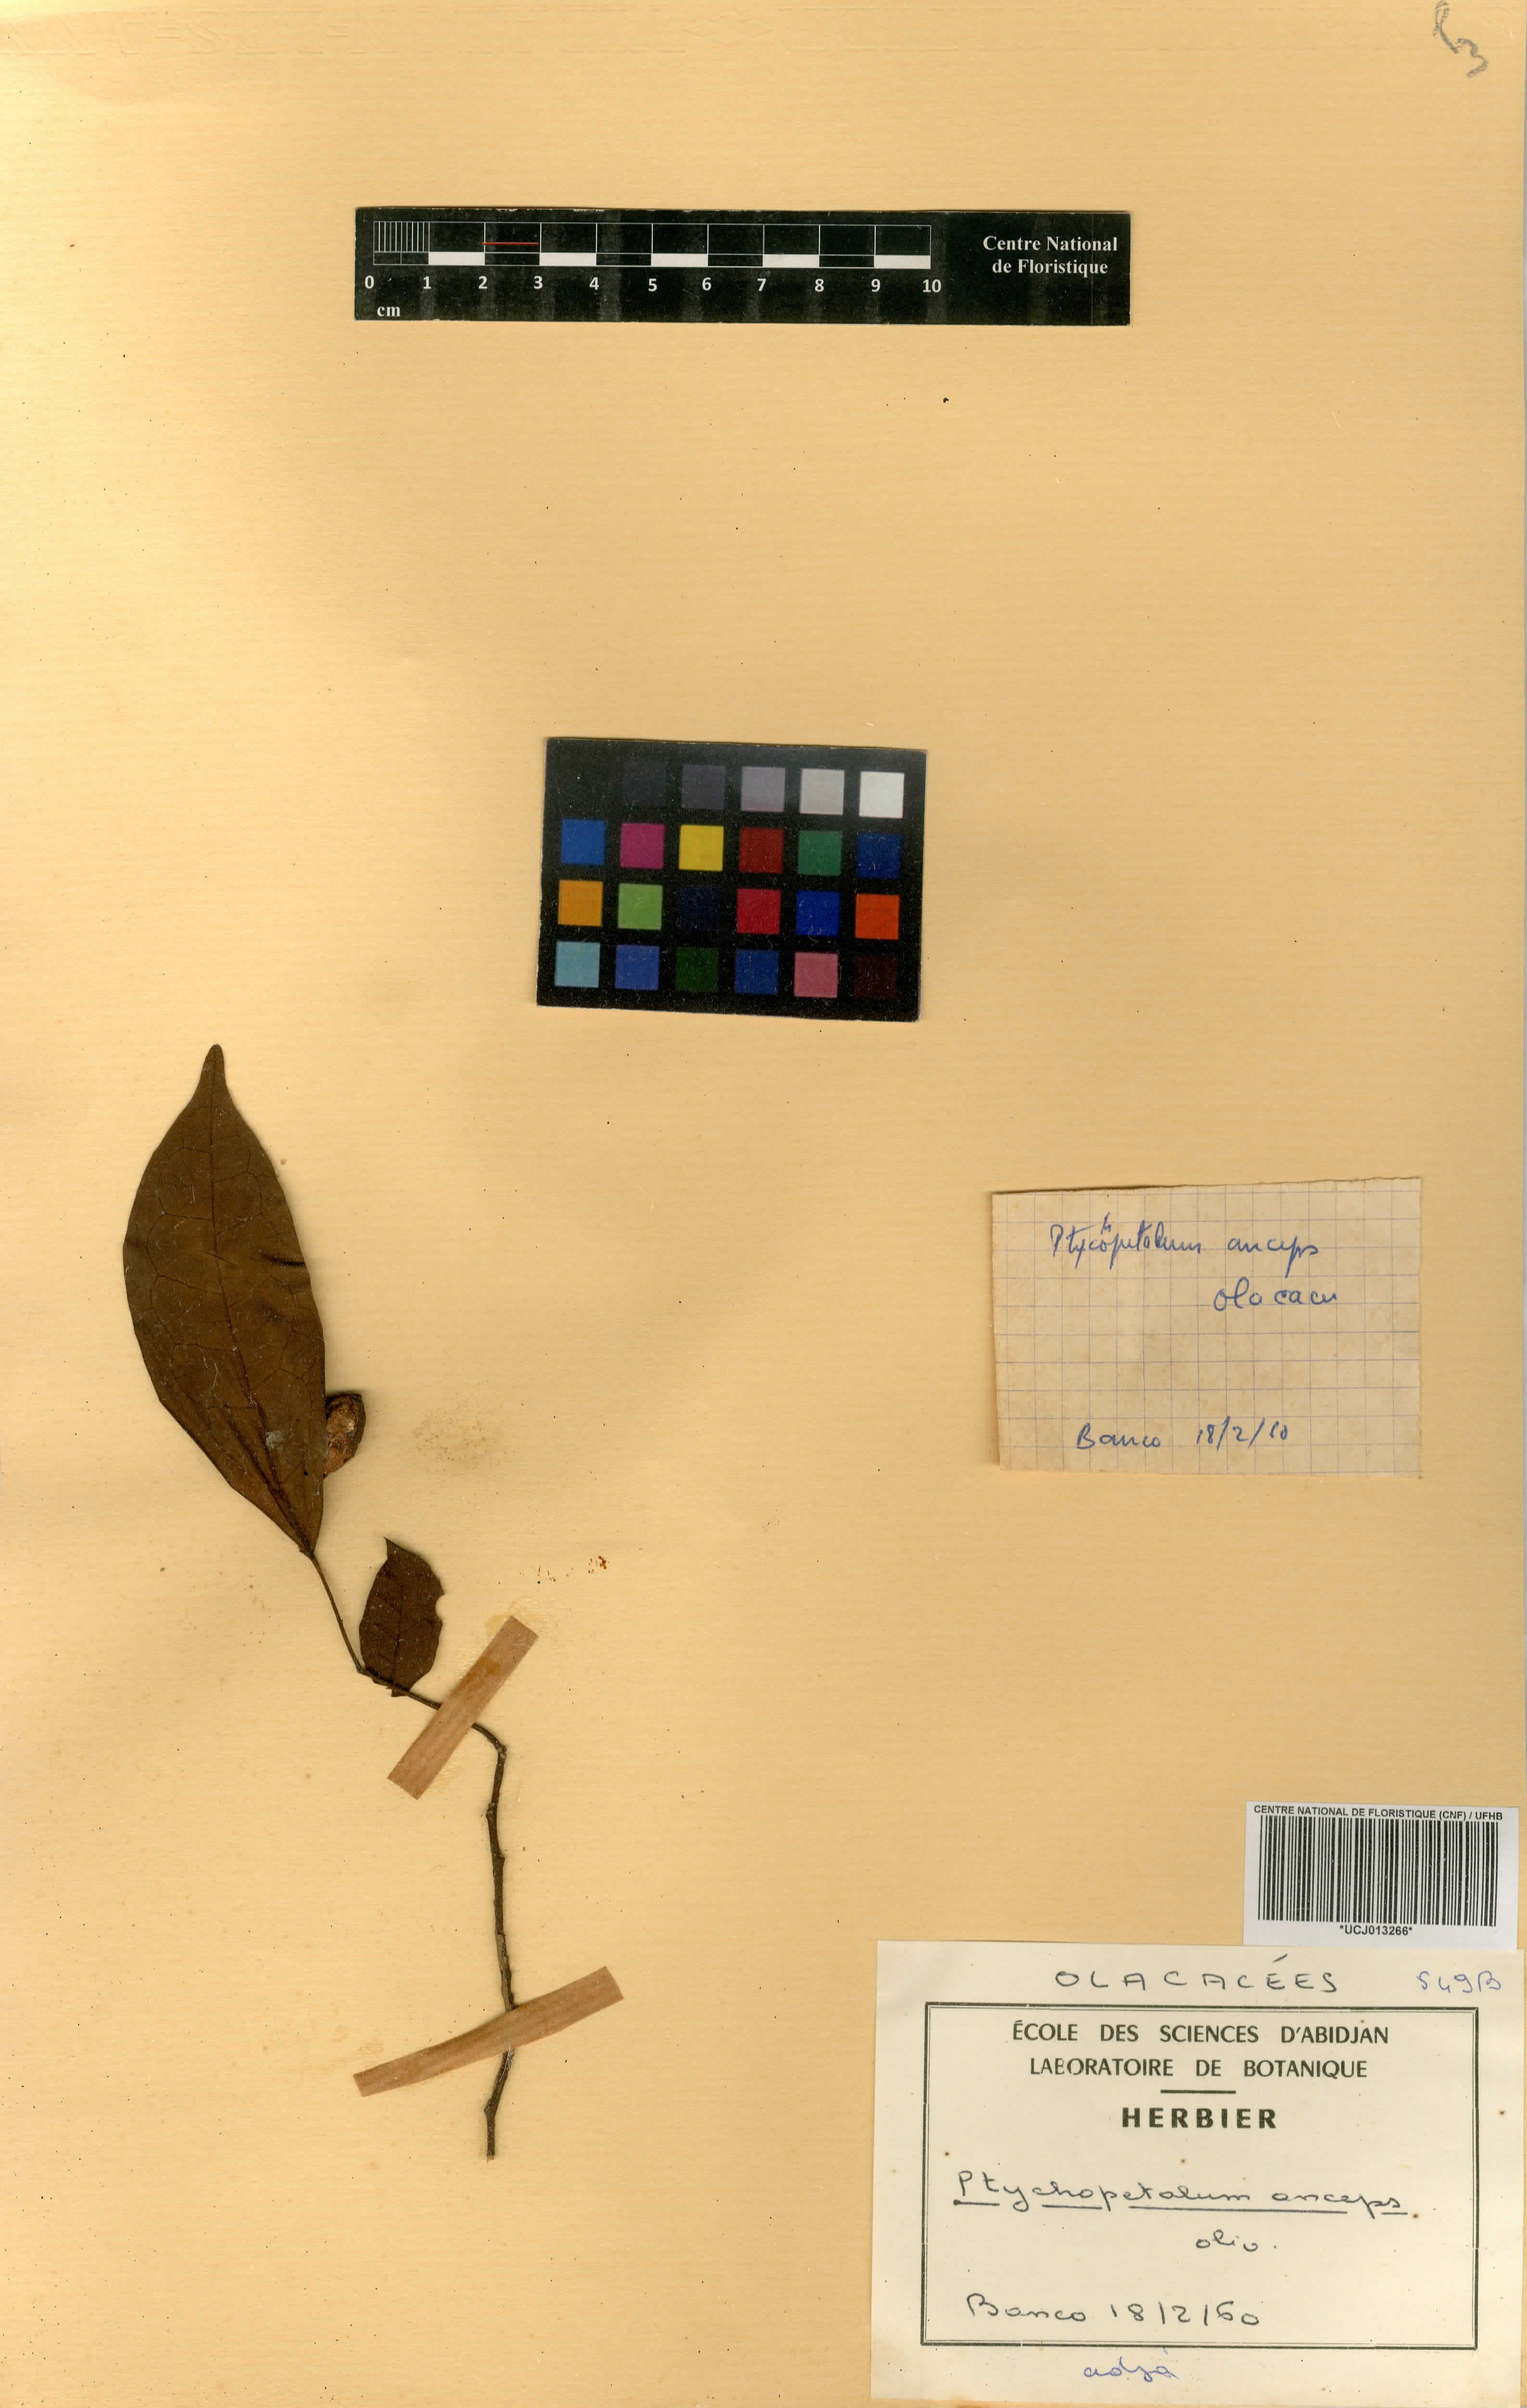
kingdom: Plantae
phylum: Tracheophyta
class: Magnoliopsida
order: Santalales
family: Olacaceae
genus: Ptychopetalum
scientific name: Ptychopetalum anceps
